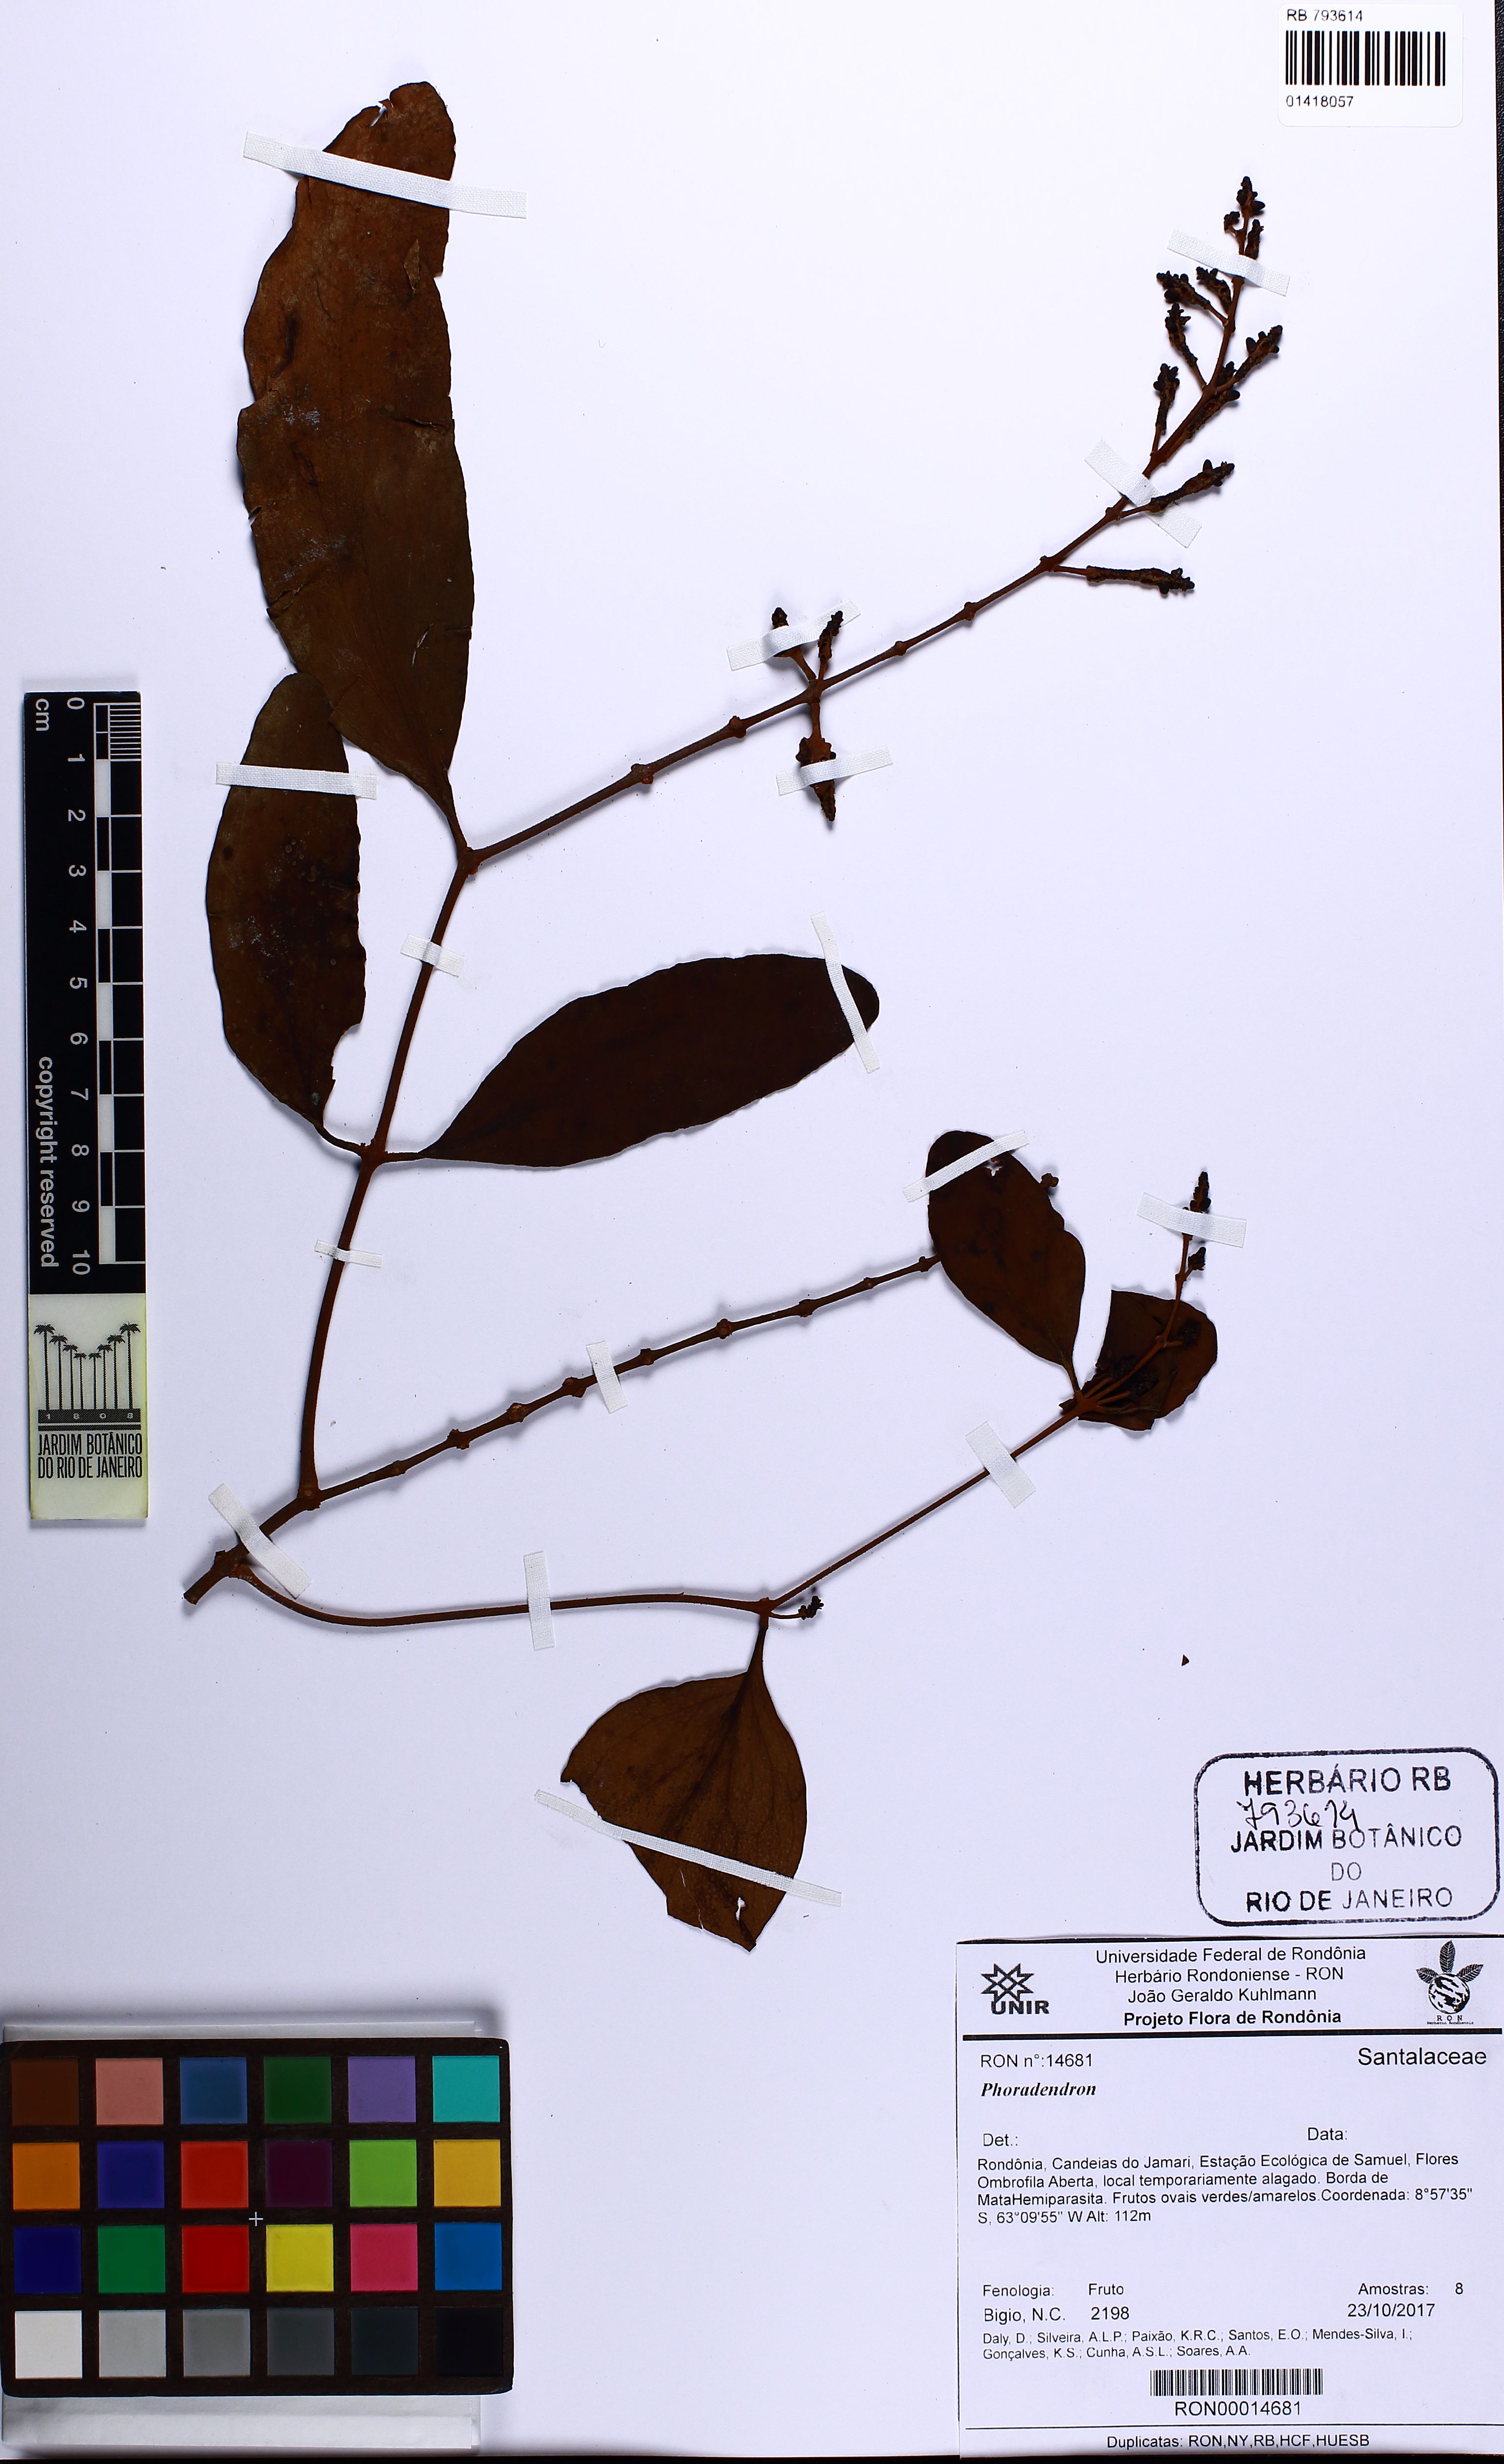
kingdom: Plantae
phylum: Tracheophyta
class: Magnoliopsida
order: Santalales
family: Loranthaceae
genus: Oryctanthus
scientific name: Oryctanthus spicatus
